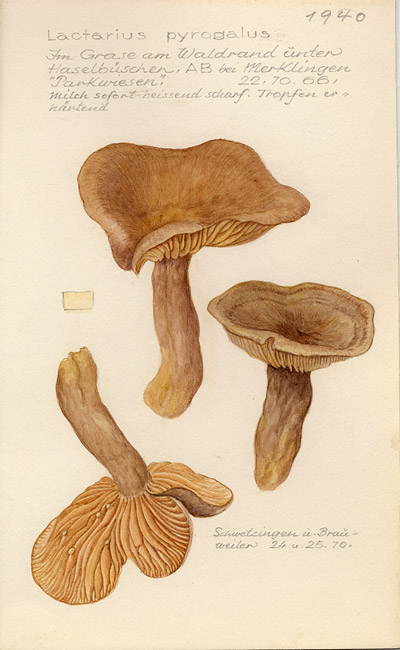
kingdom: Fungi
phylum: Basidiomycota
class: Agaricomycetes
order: Russulales
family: Russulaceae
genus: Lactarius
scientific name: Lactarius pyrogalus
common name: Fiery milkcap
